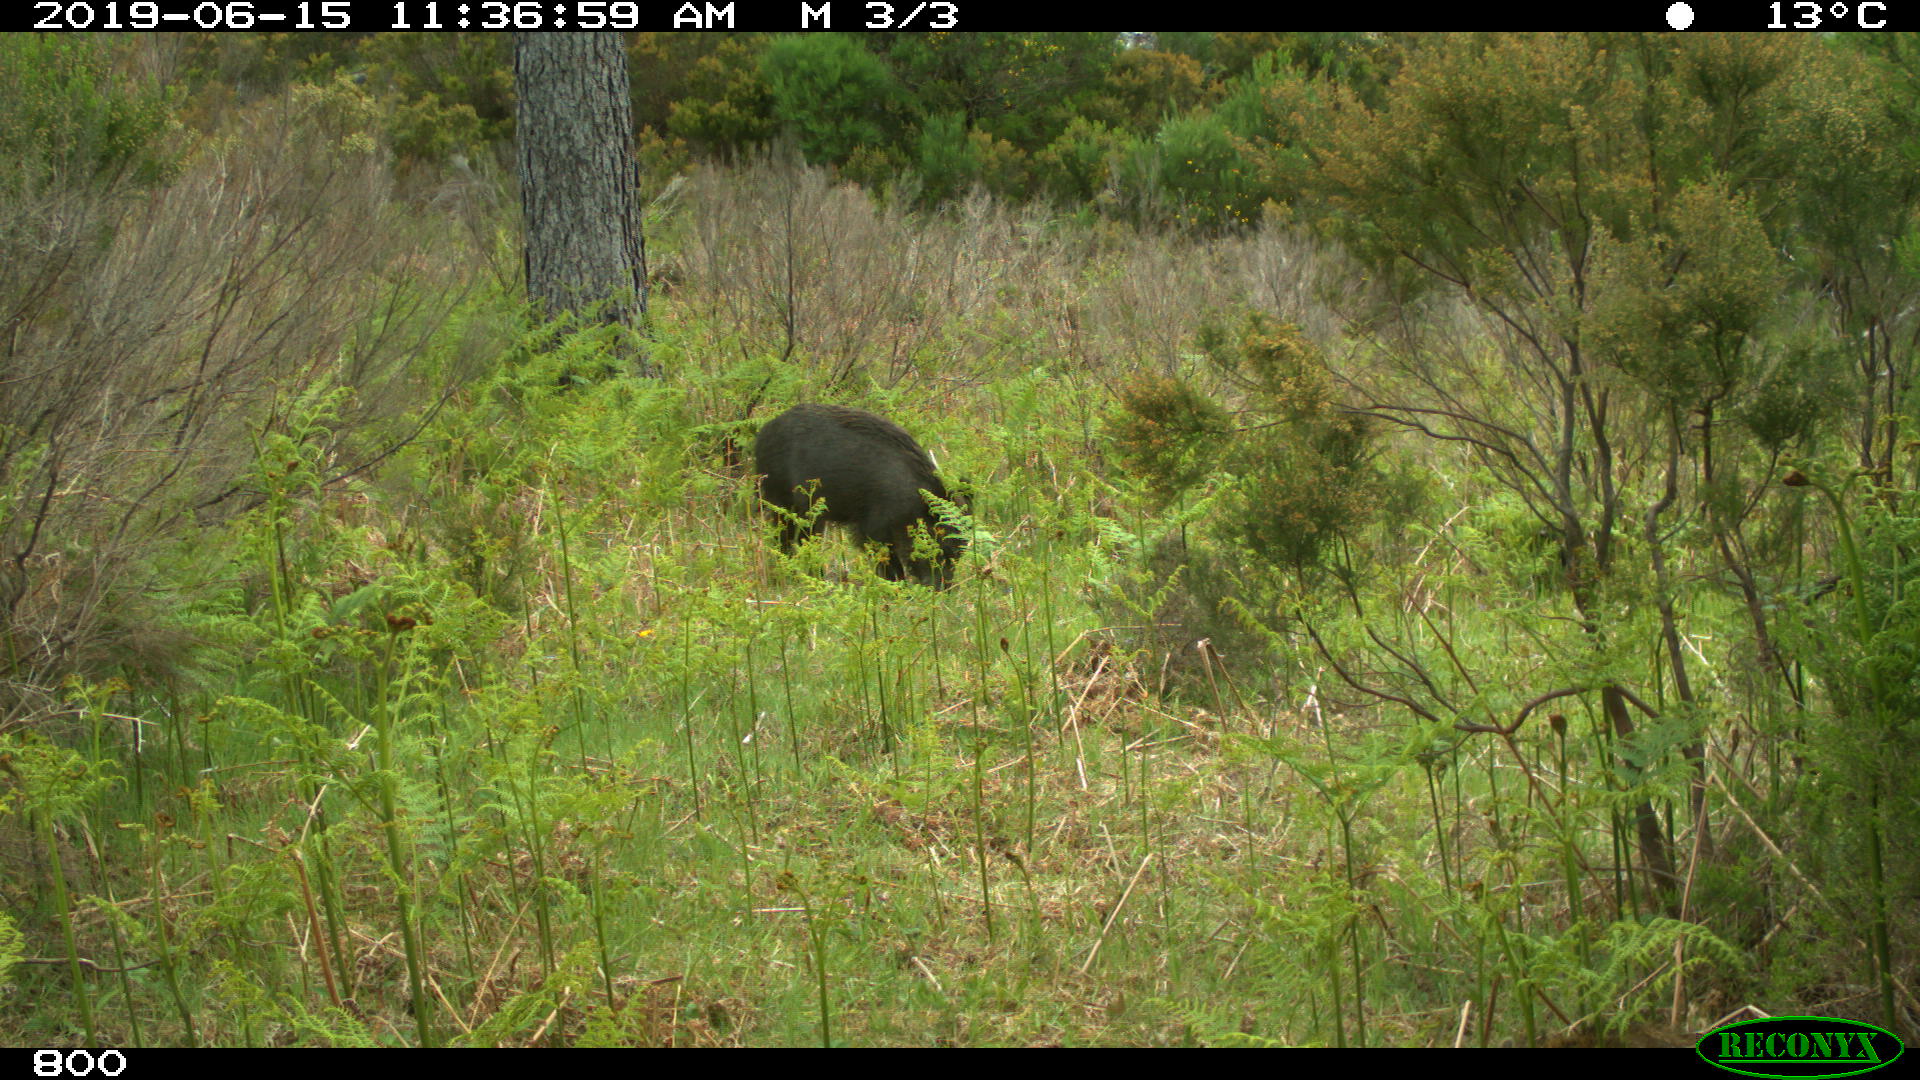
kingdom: Animalia
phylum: Chordata
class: Mammalia
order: Artiodactyla
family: Suidae
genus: Sus
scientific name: Sus scrofa
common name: Wild boar
